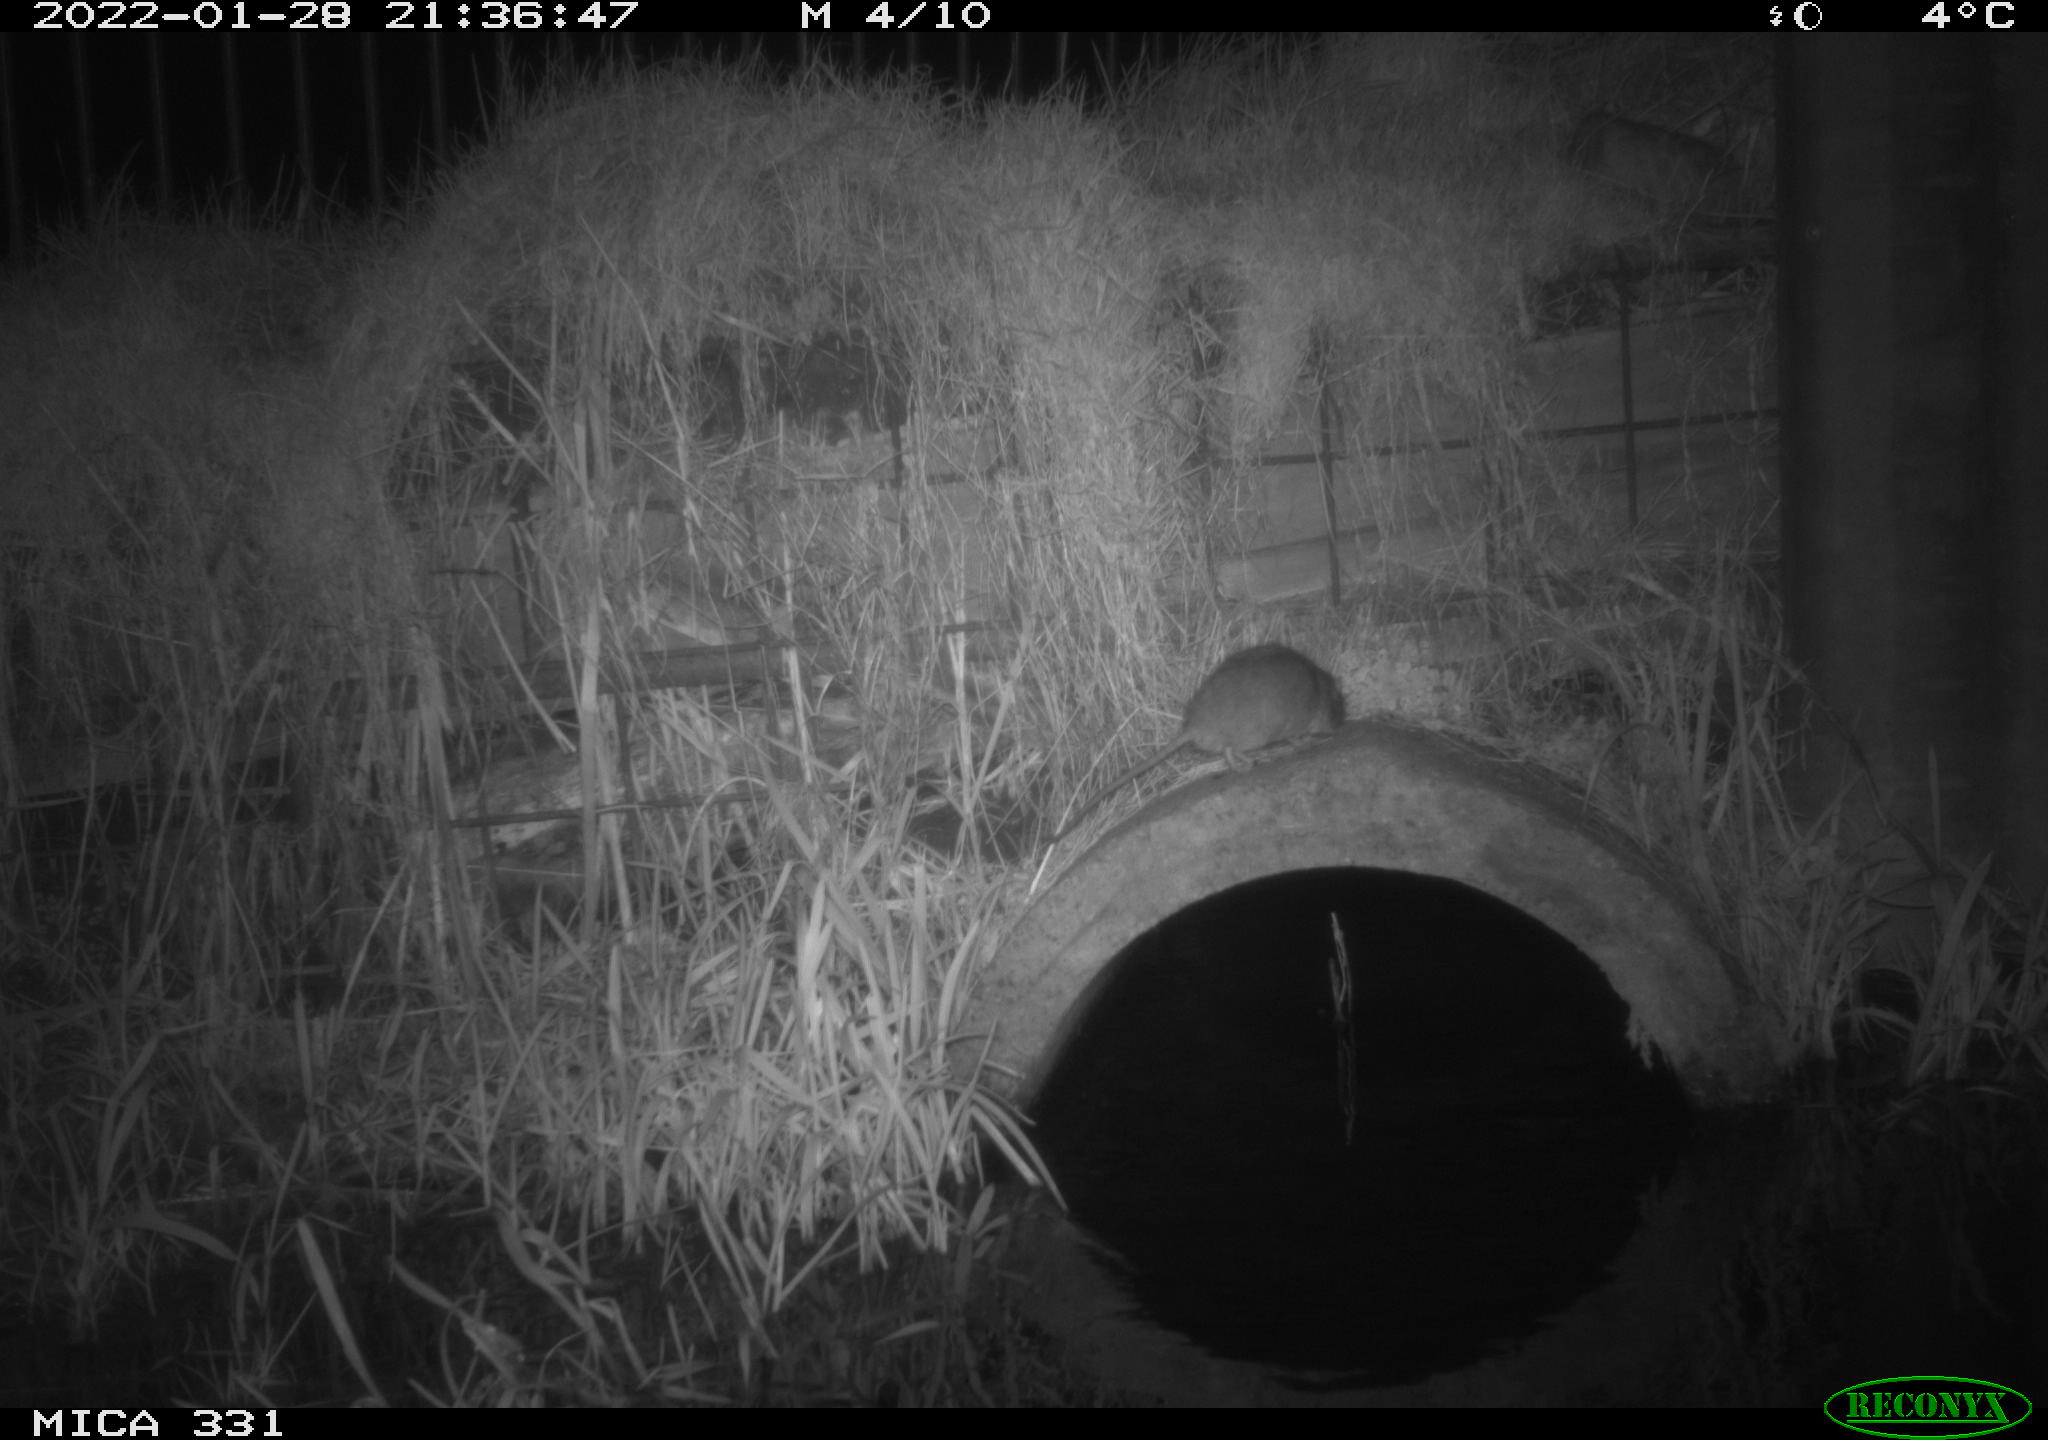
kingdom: Animalia
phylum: Chordata
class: Mammalia
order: Rodentia
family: Muridae
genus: Rattus
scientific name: Rattus norvegicus
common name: Brown rat
